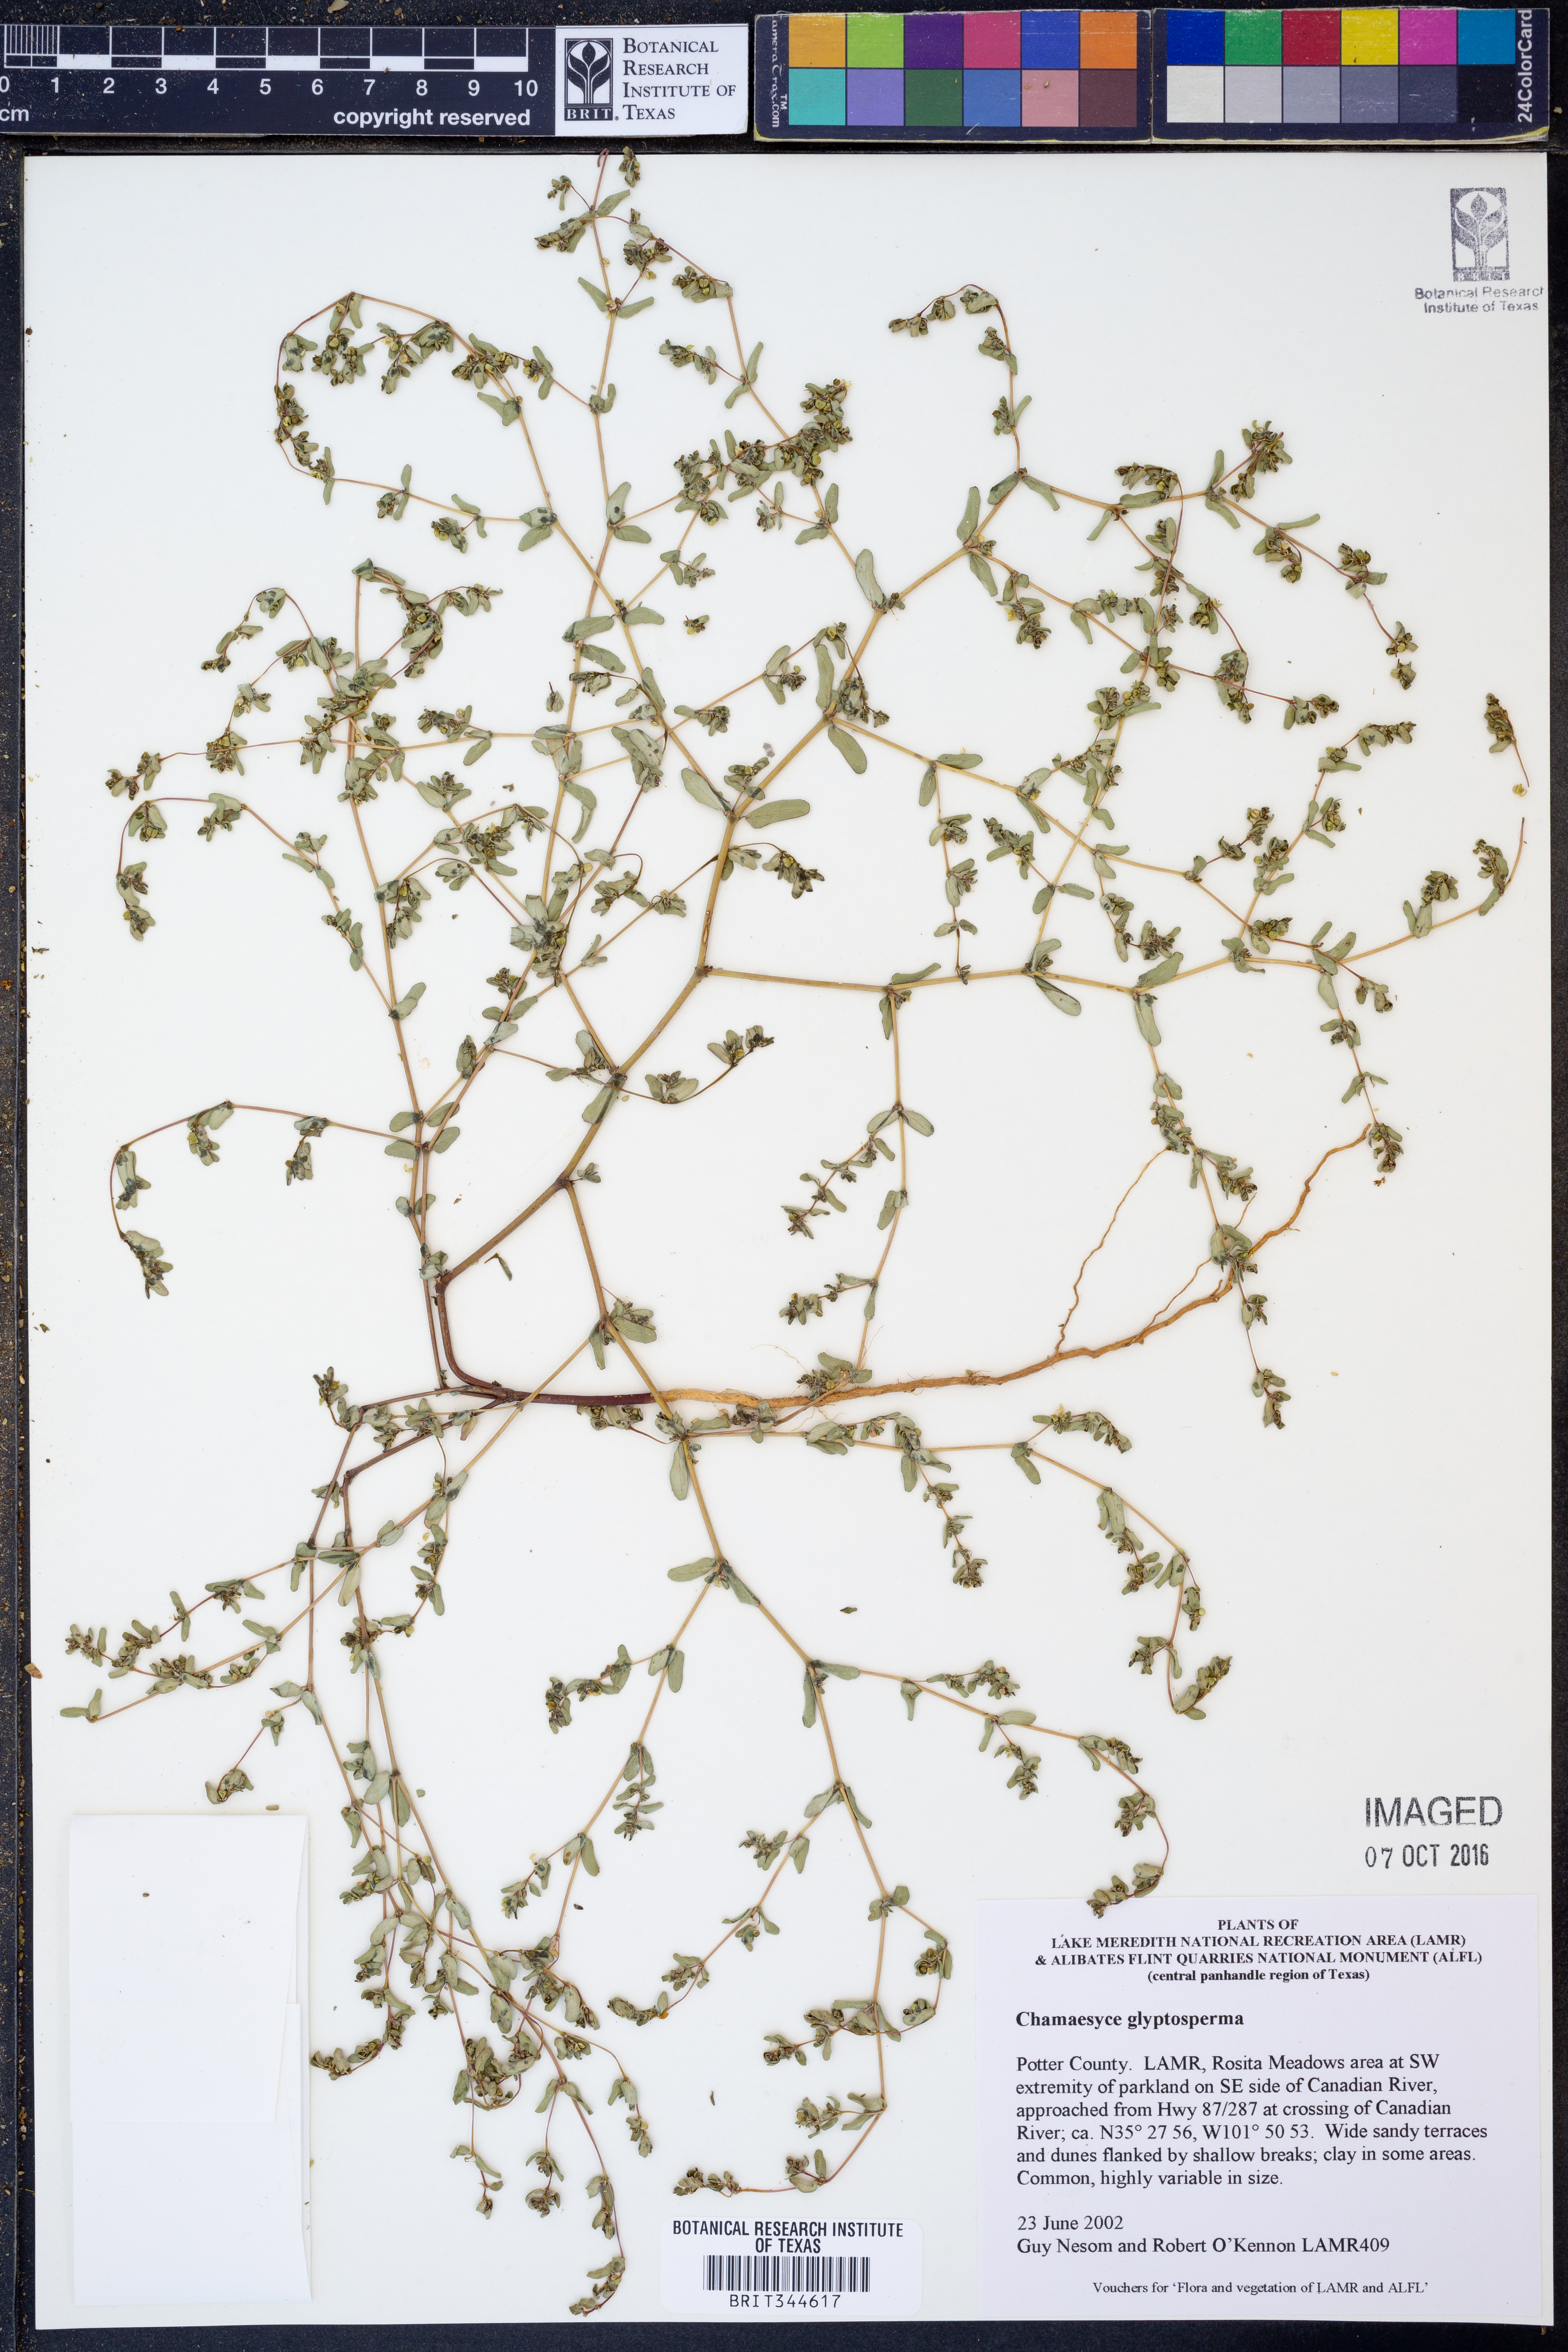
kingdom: Plantae
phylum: Tracheophyta
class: Magnoliopsida
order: Malpighiales
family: Euphorbiaceae
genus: Euphorbia
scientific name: Euphorbia glyptosperma
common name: Corrugate-seeded spurge
